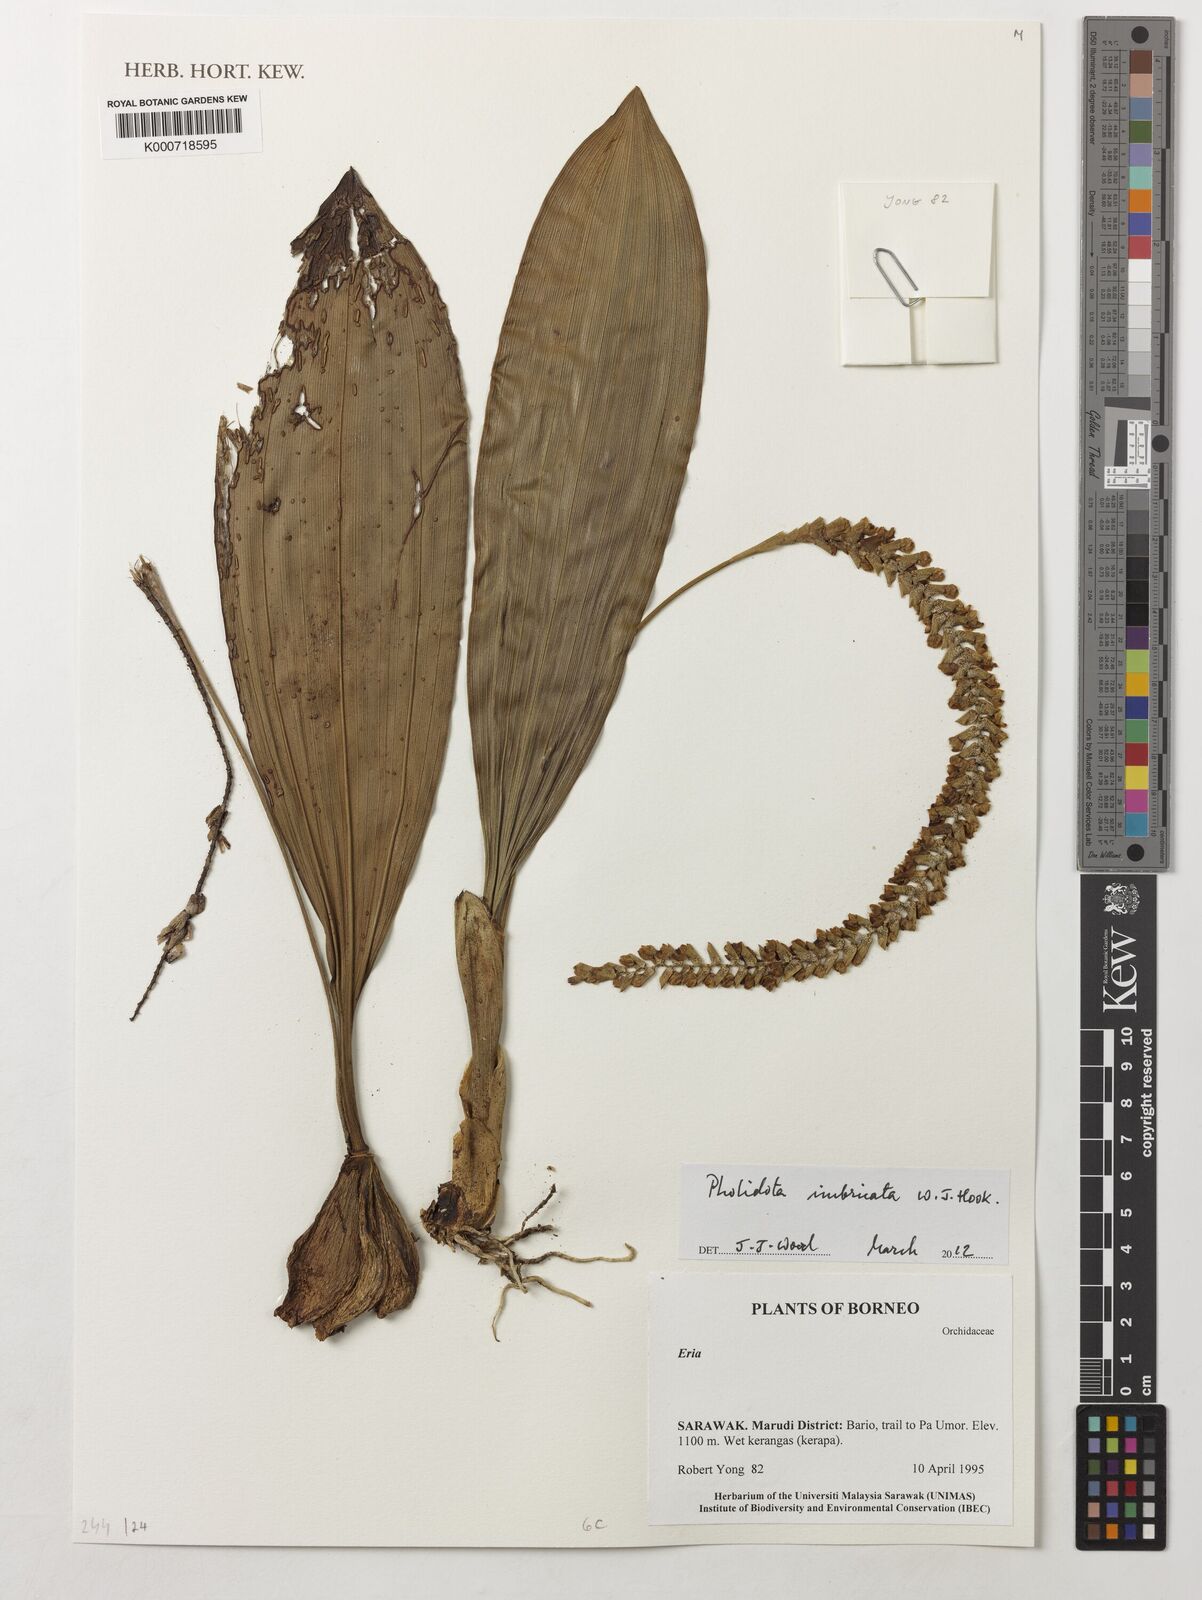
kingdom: Plantae
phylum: Tracheophyta
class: Liliopsida
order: Asparagales
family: Orchidaceae
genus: Pholidota
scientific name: Pholidota
